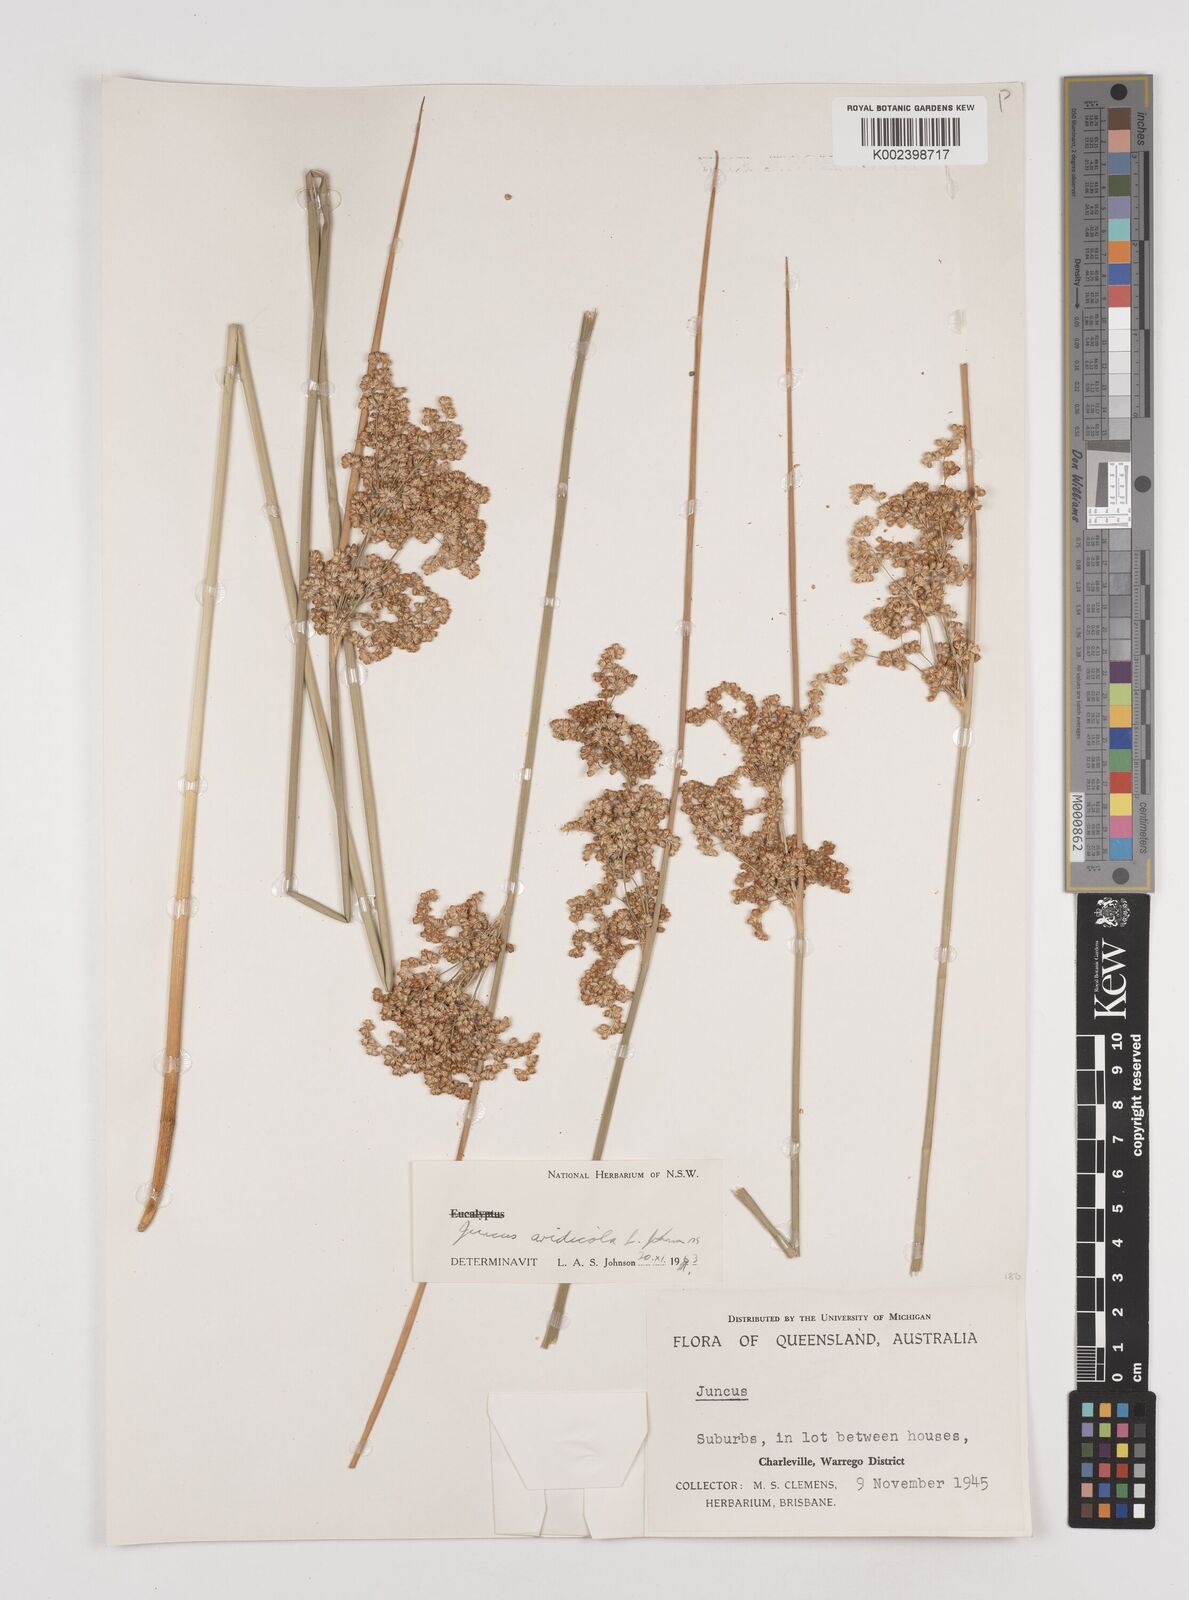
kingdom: Plantae
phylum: Tracheophyta
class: Liliopsida
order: Poales
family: Juncaceae
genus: Juncus
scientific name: Juncus aridicola
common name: Tussock rush
